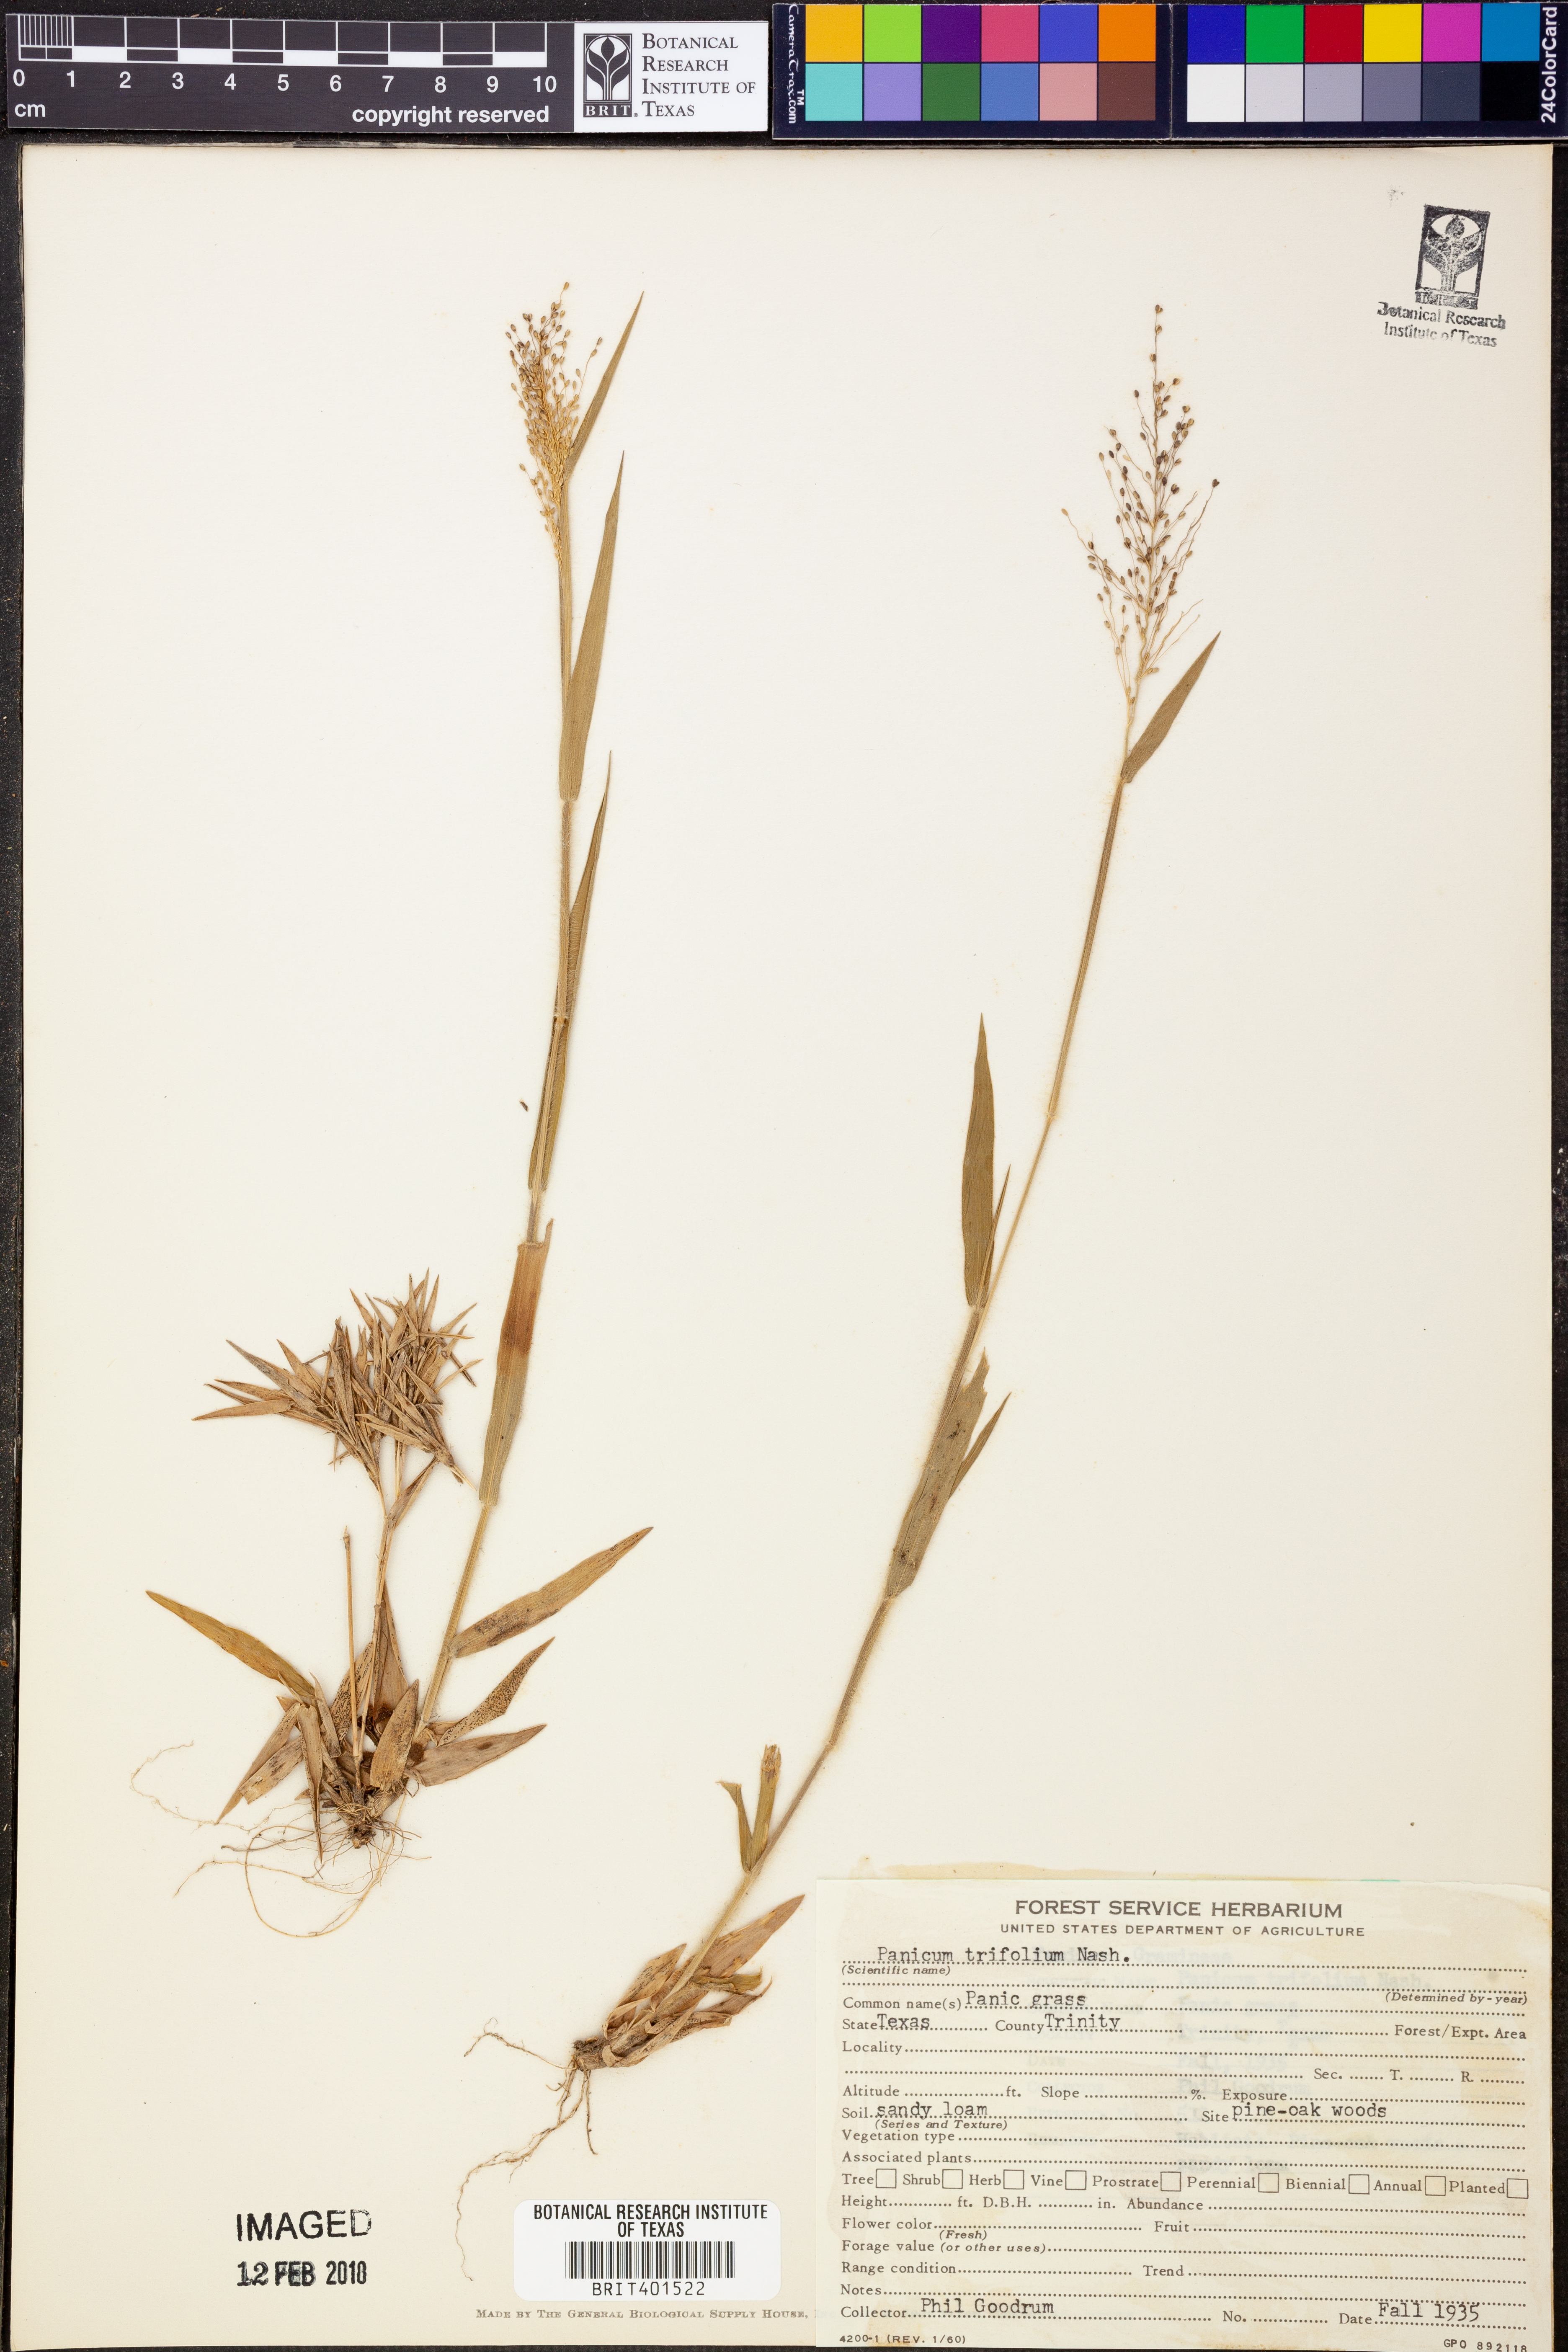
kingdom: Plantae
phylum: Tracheophyta
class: Liliopsida
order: Poales
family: Poaceae
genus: Dichanthelium
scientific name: Dichanthelium trifolium
